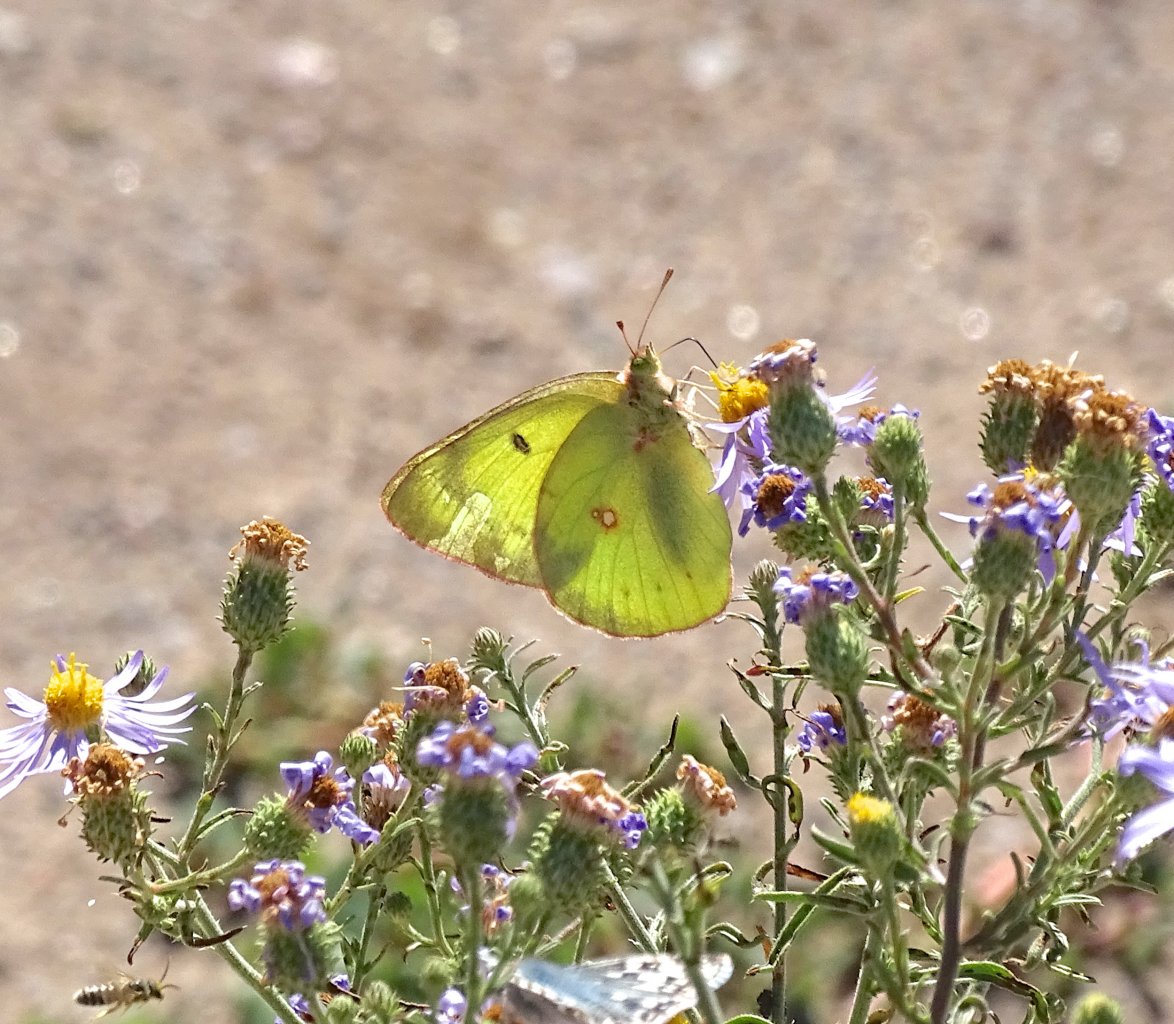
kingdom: Animalia
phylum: Arthropoda
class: Insecta
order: Lepidoptera
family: Pieridae
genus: Colias
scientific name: Colias philodice
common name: Clouded Sulphur
